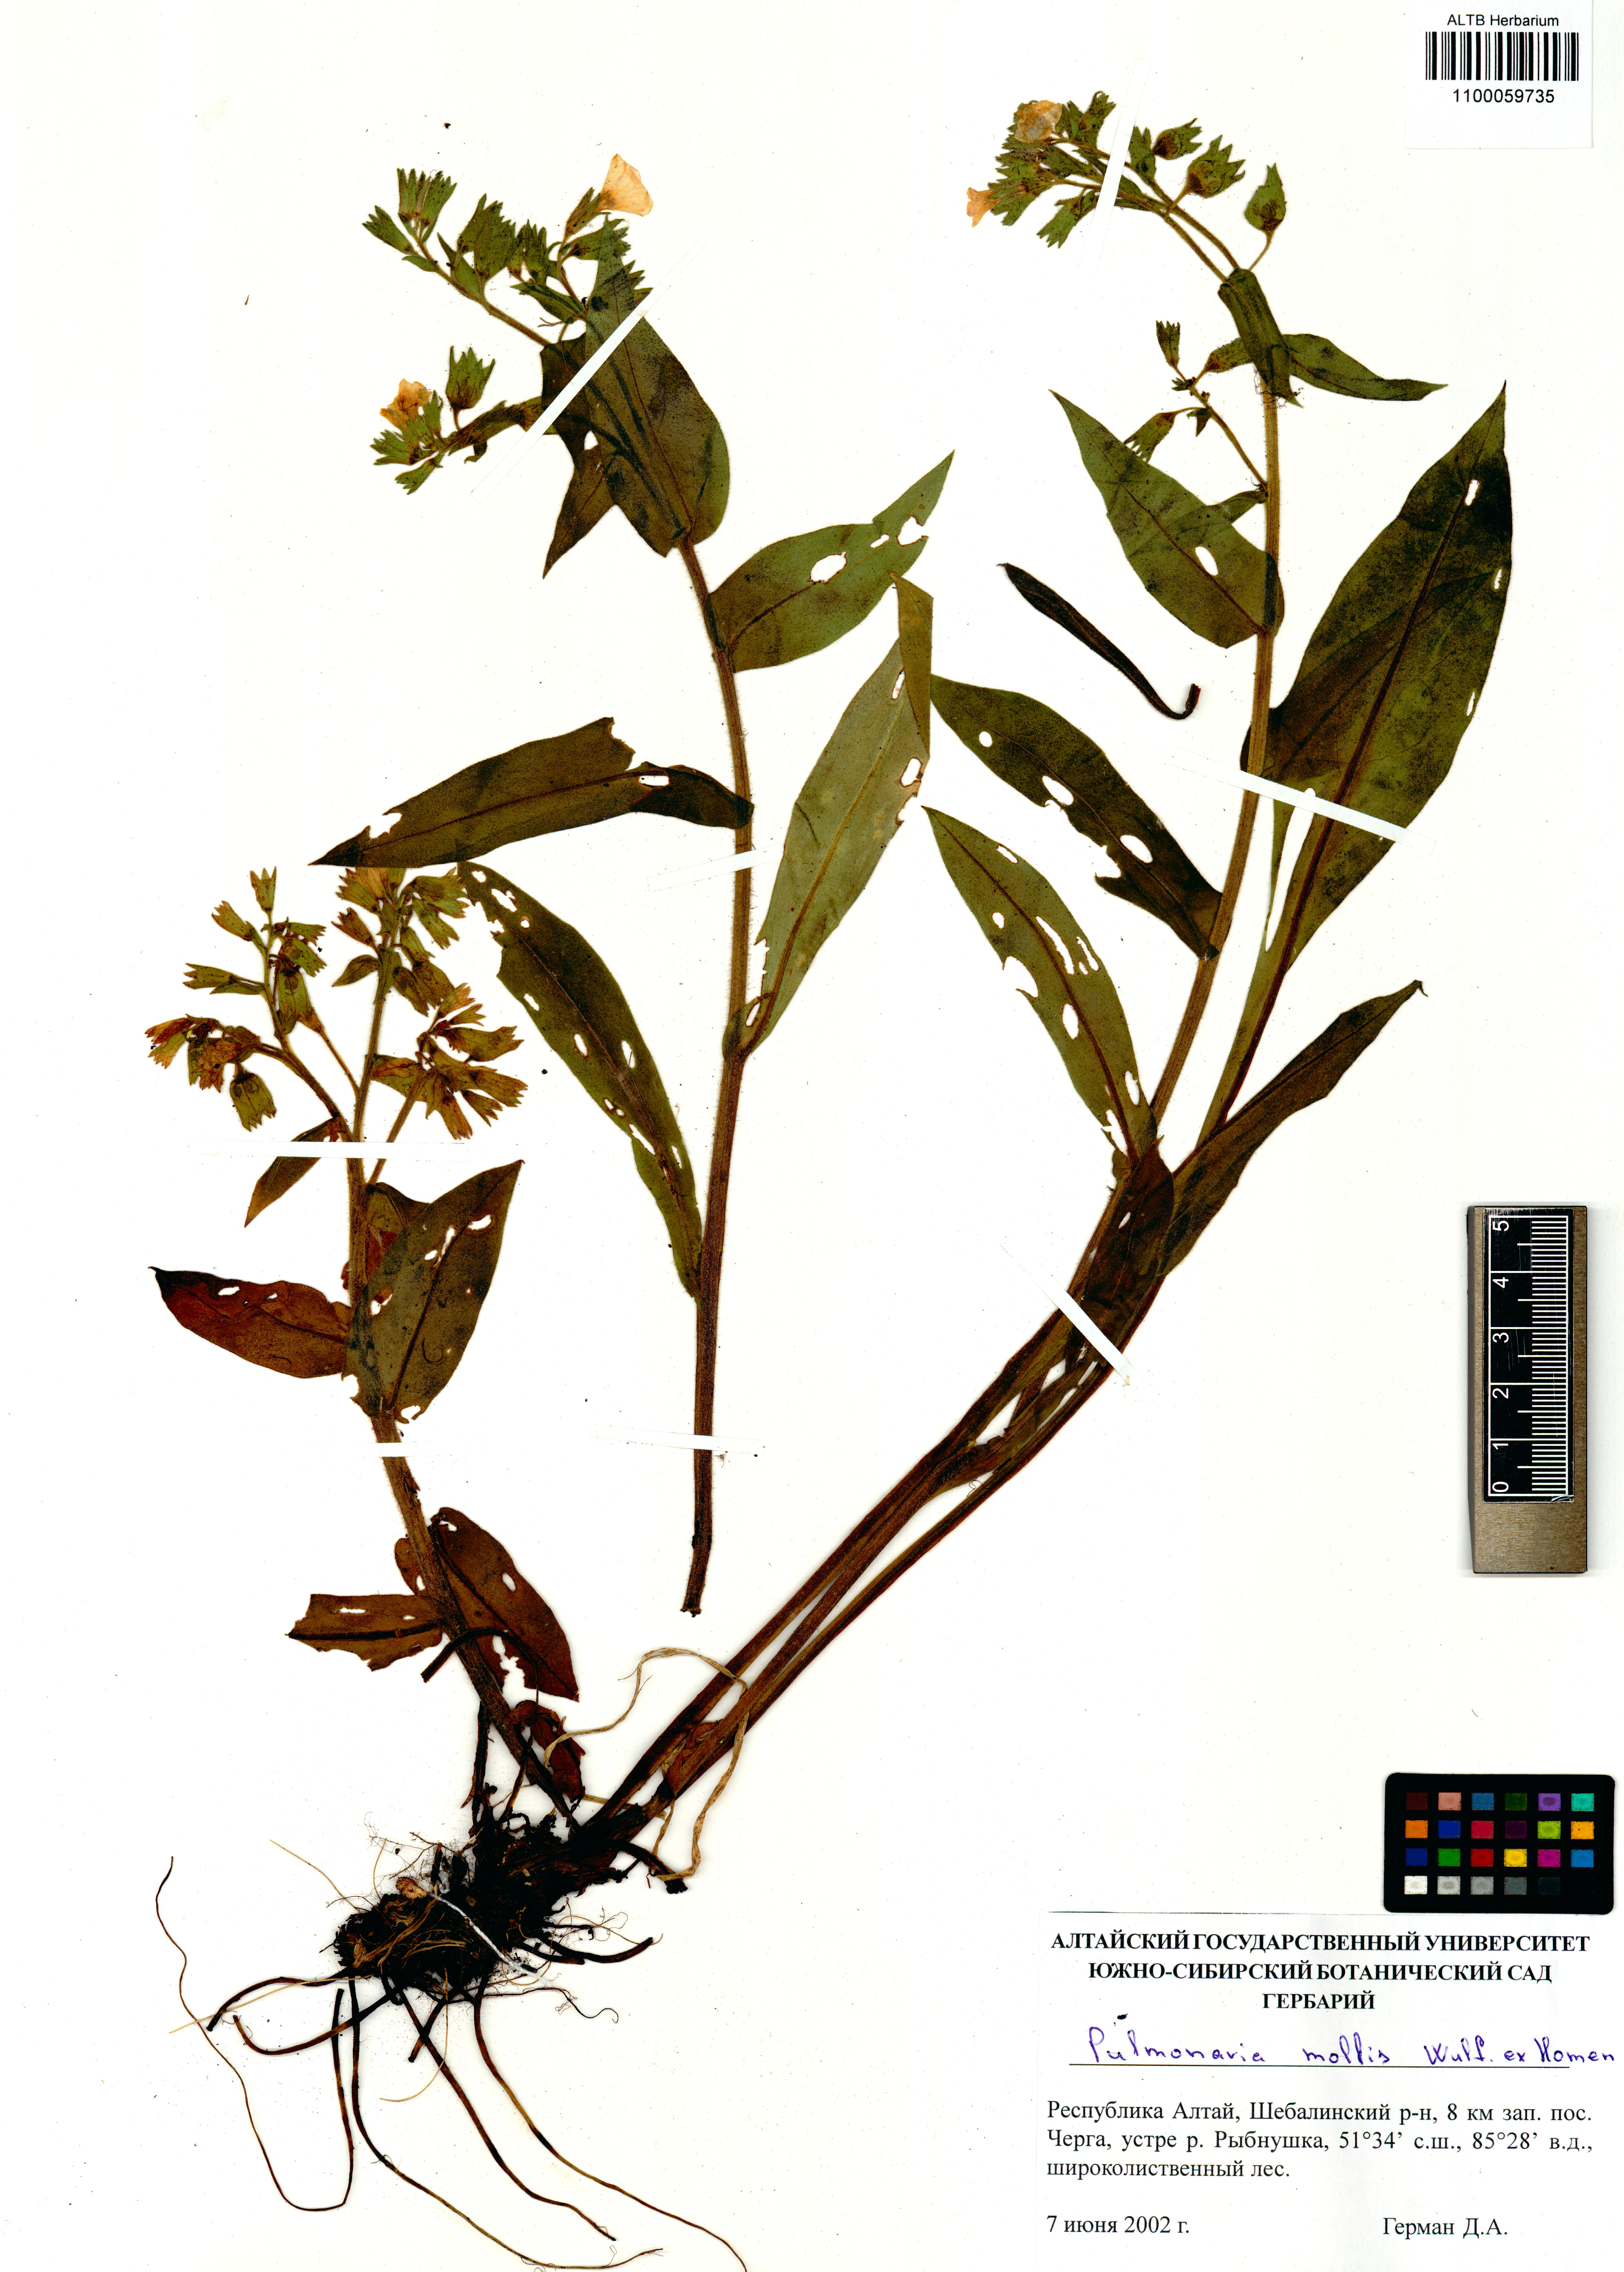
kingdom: Plantae
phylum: Tracheophyta
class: Magnoliopsida
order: Boraginales
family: Boraginaceae
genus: Pulmonaria
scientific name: Pulmonaria mollis
